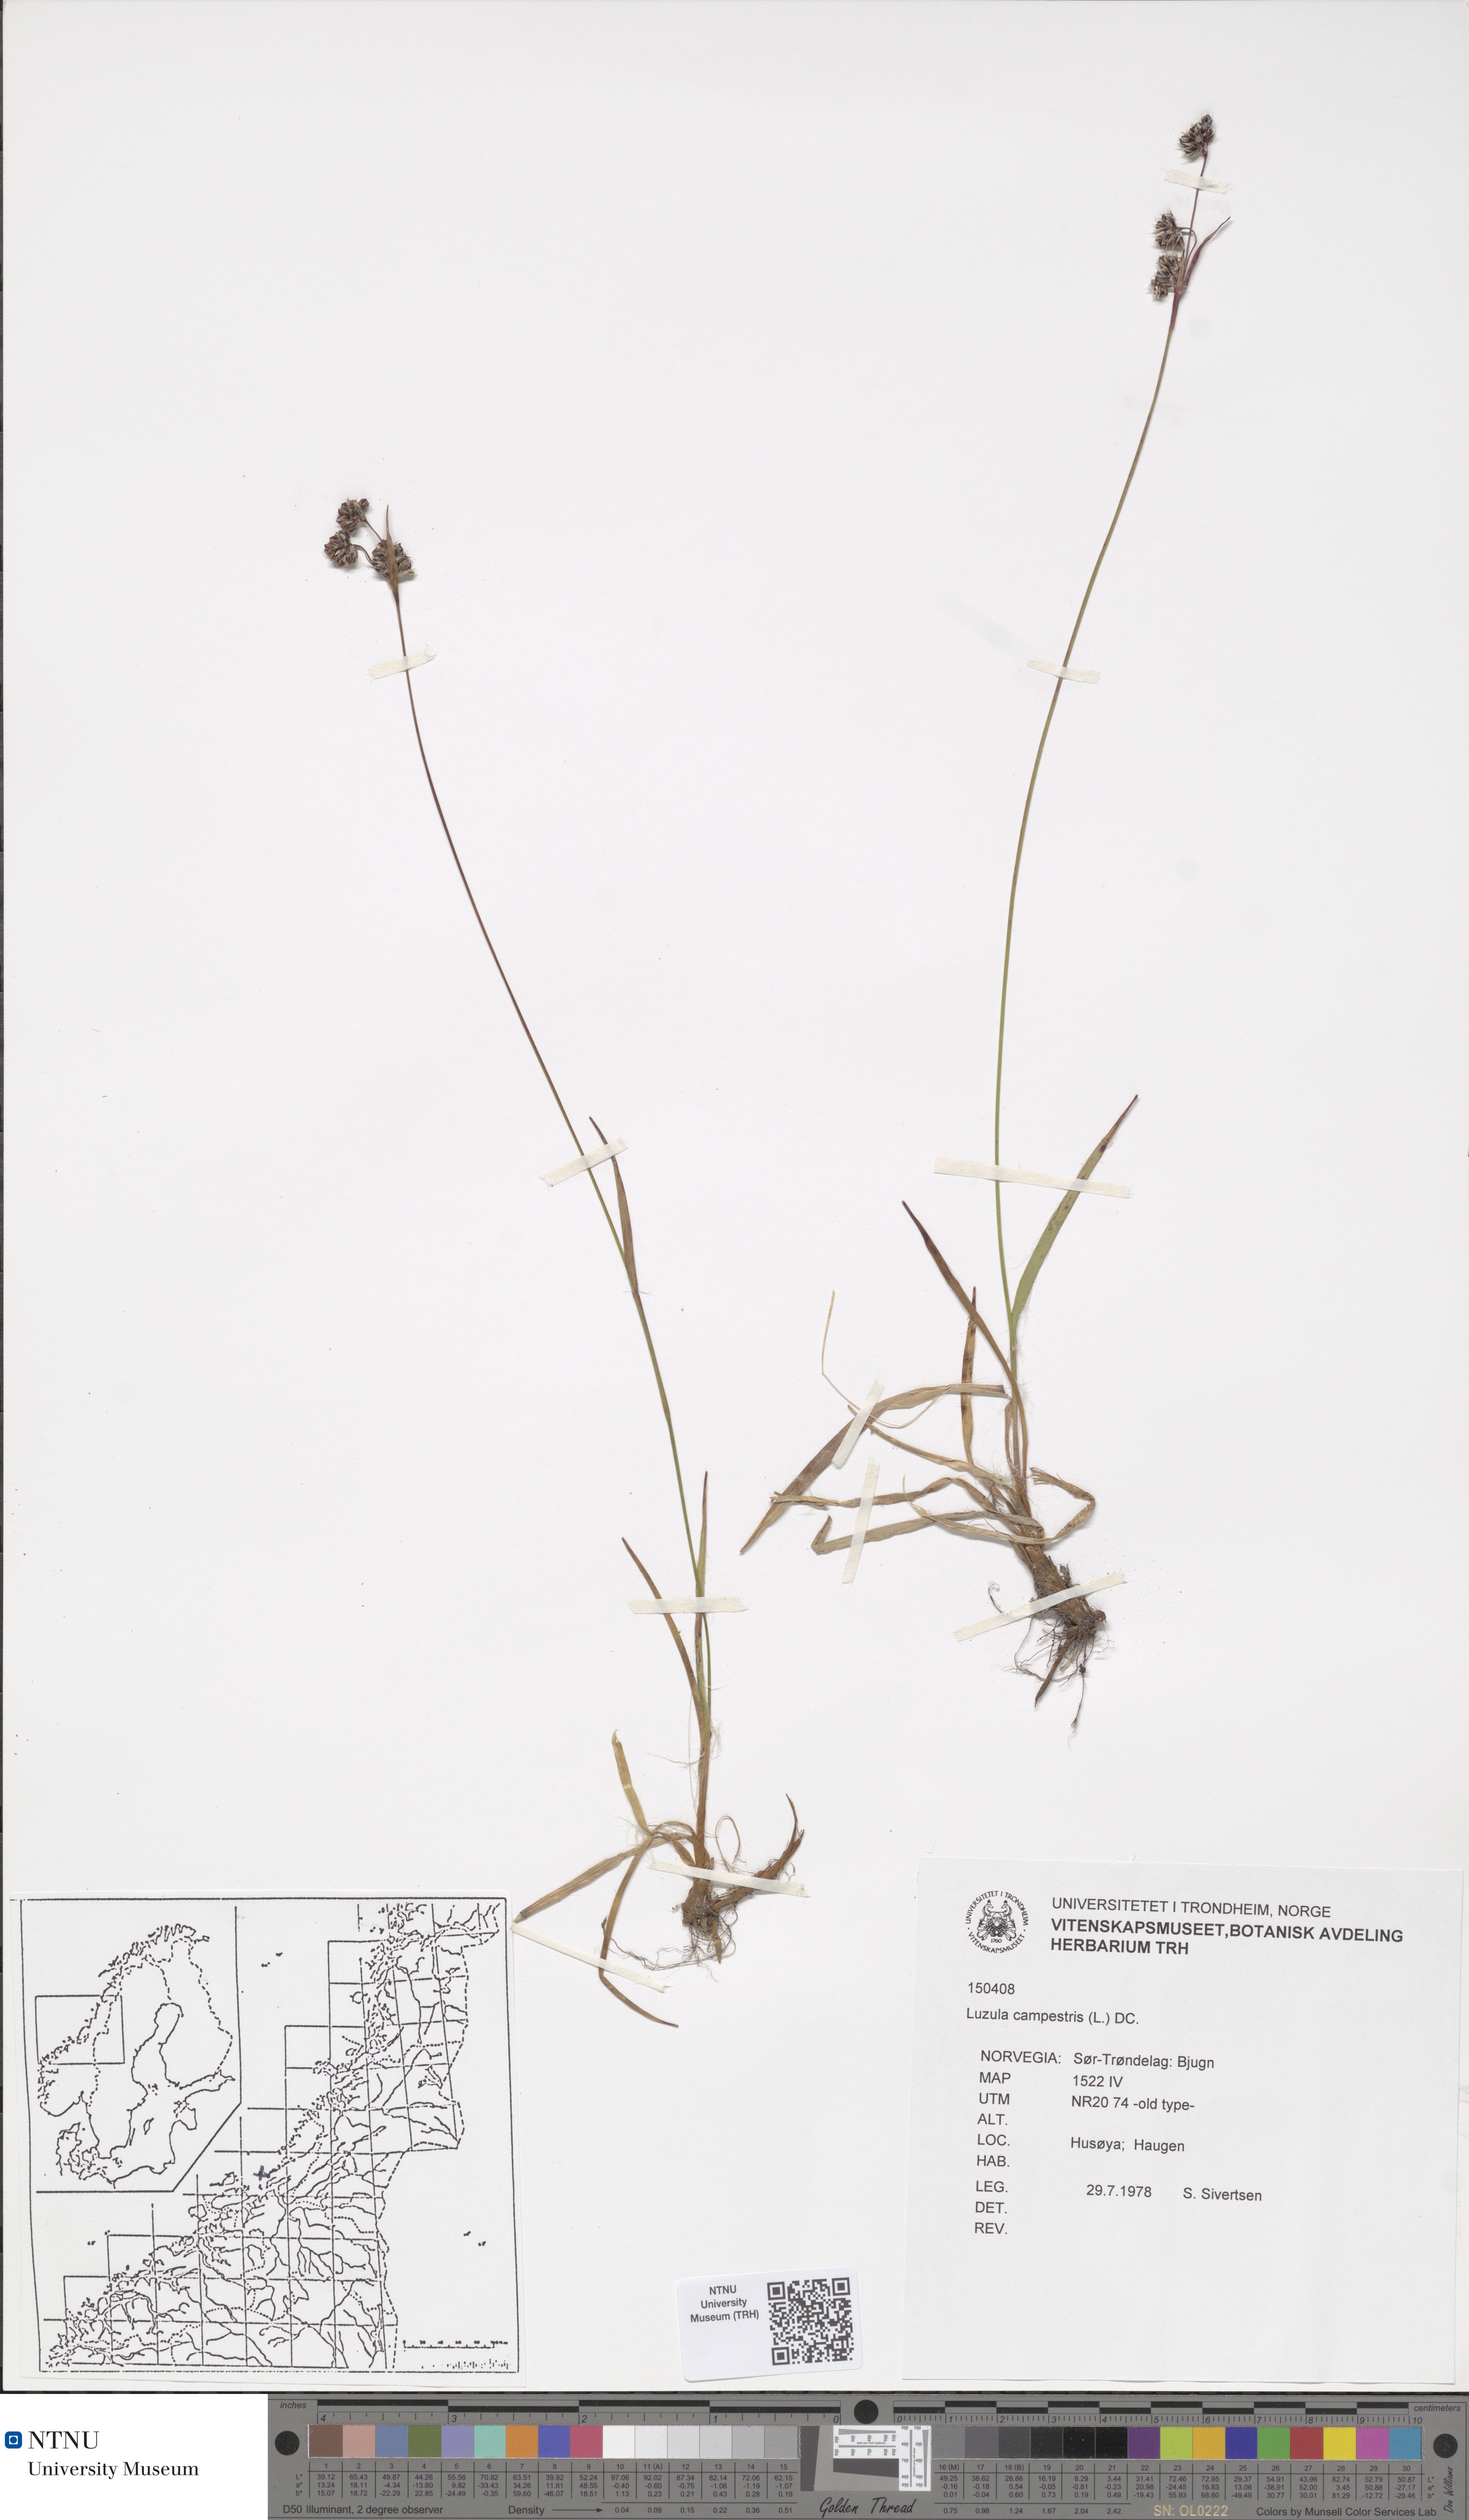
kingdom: Plantae
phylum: Tracheophyta
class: Liliopsida
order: Poales
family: Juncaceae
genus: Luzula
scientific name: Luzula campestris
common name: Field wood-rush
